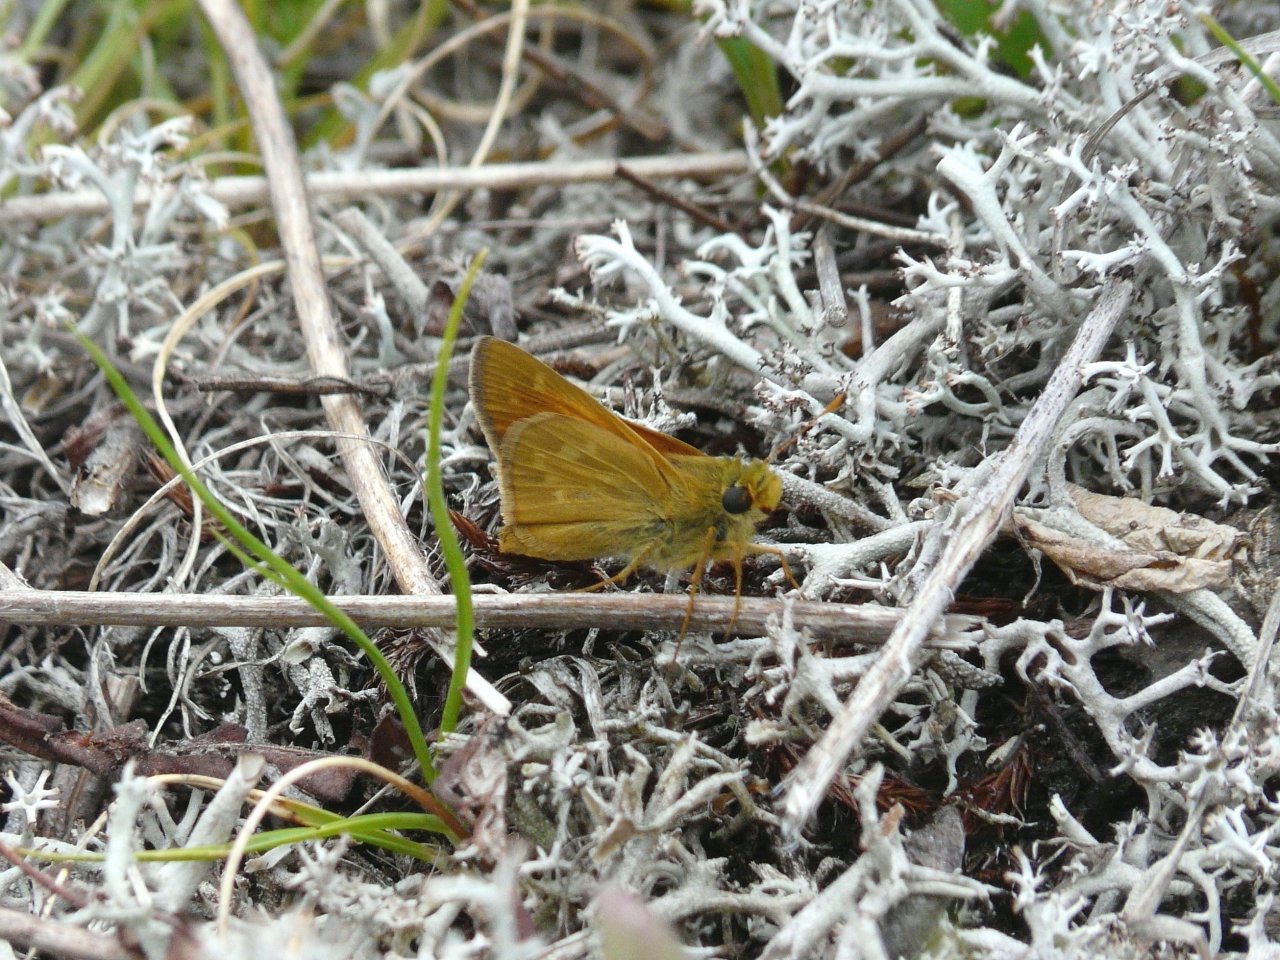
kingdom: Animalia
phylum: Arthropoda
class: Insecta
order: Lepidoptera
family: Hesperiidae
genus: Hesperia
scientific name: Hesperia sassacus
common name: Sassacus Skipper
